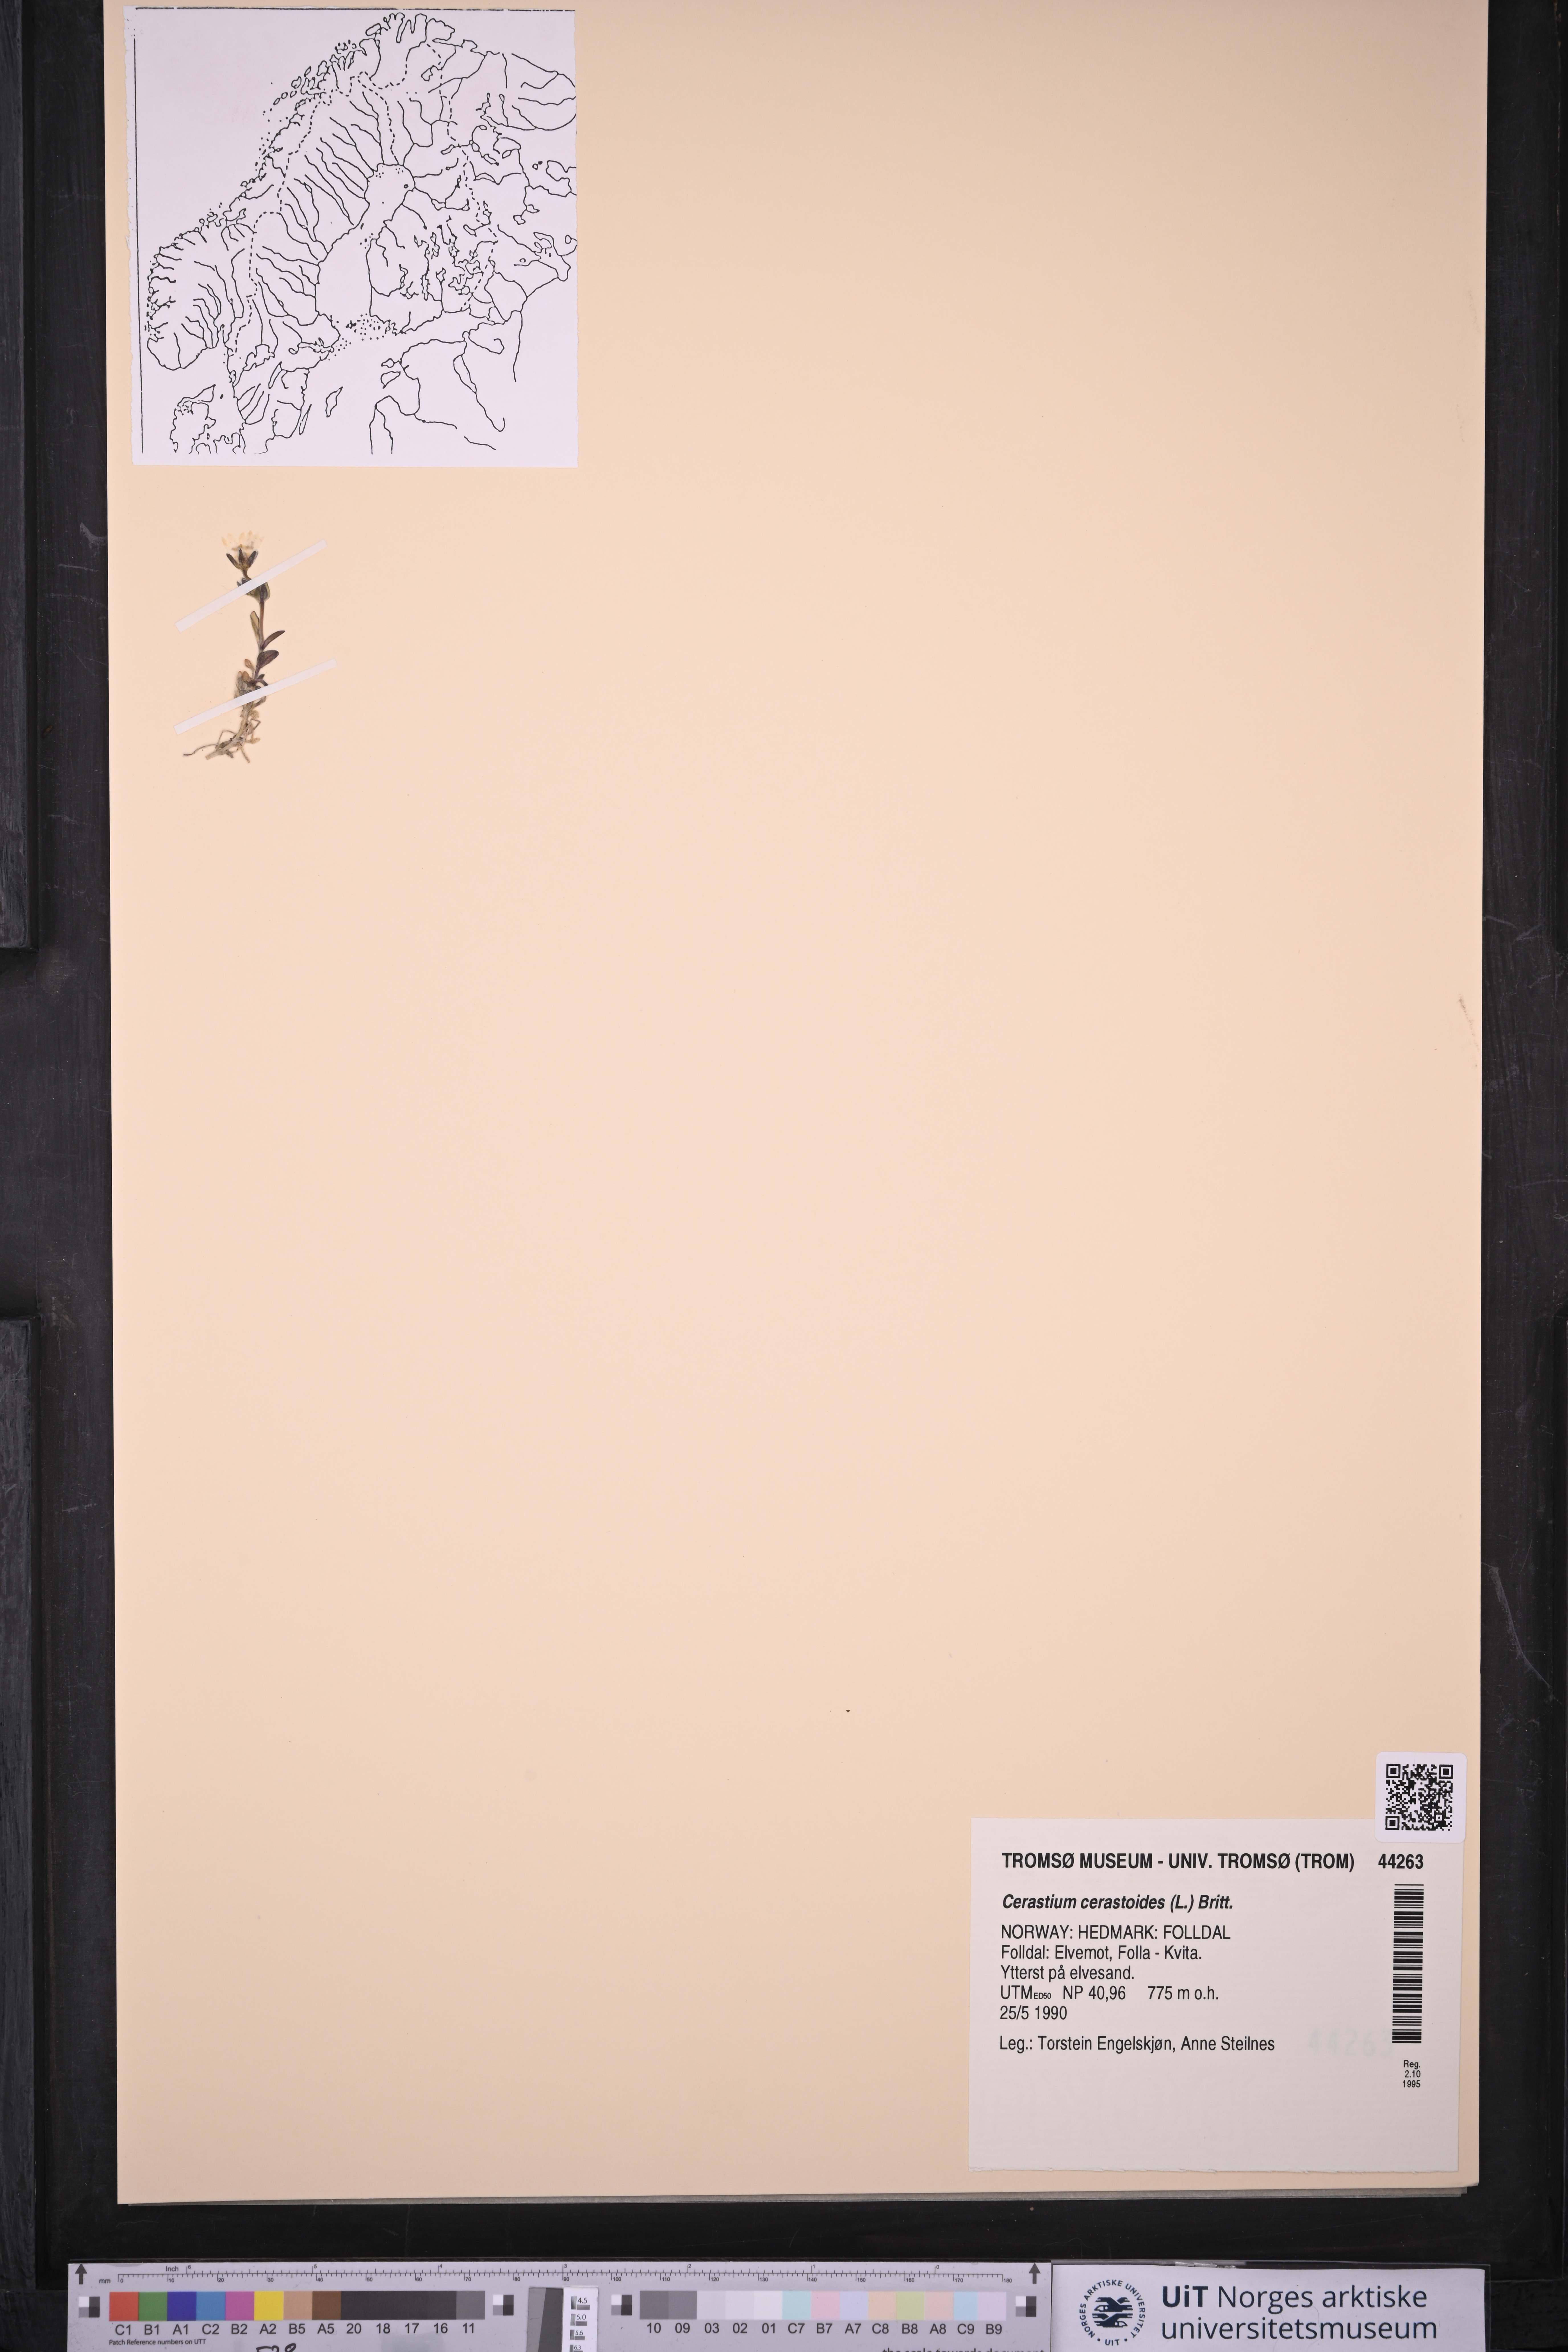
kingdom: Plantae
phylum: Tracheophyta
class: Magnoliopsida
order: Caryophyllales
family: Caryophyllaceae
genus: Dichodon
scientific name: Dichodon cerastoides
